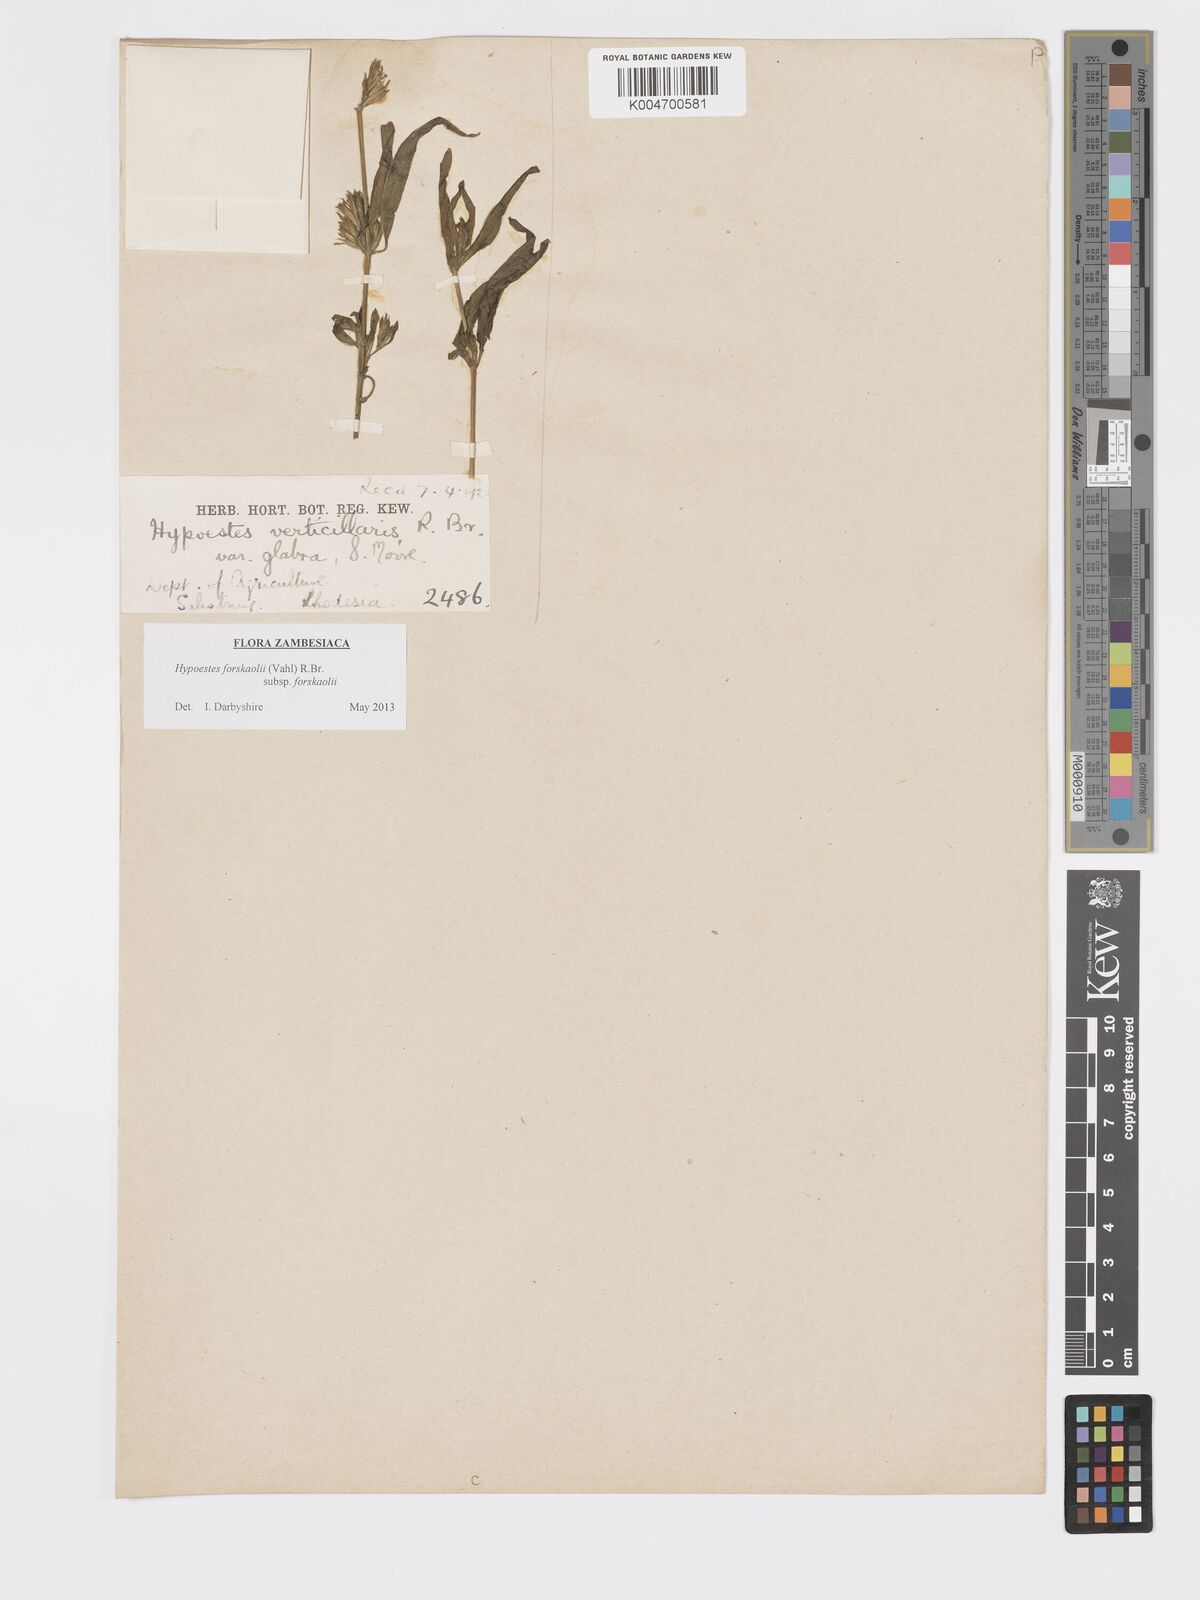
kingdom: Plantae
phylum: Tracheophyta
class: Magnoliopsida
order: Lamiales
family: Acanthaceae
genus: Hypoestes
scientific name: Hypoestes forskaolii
